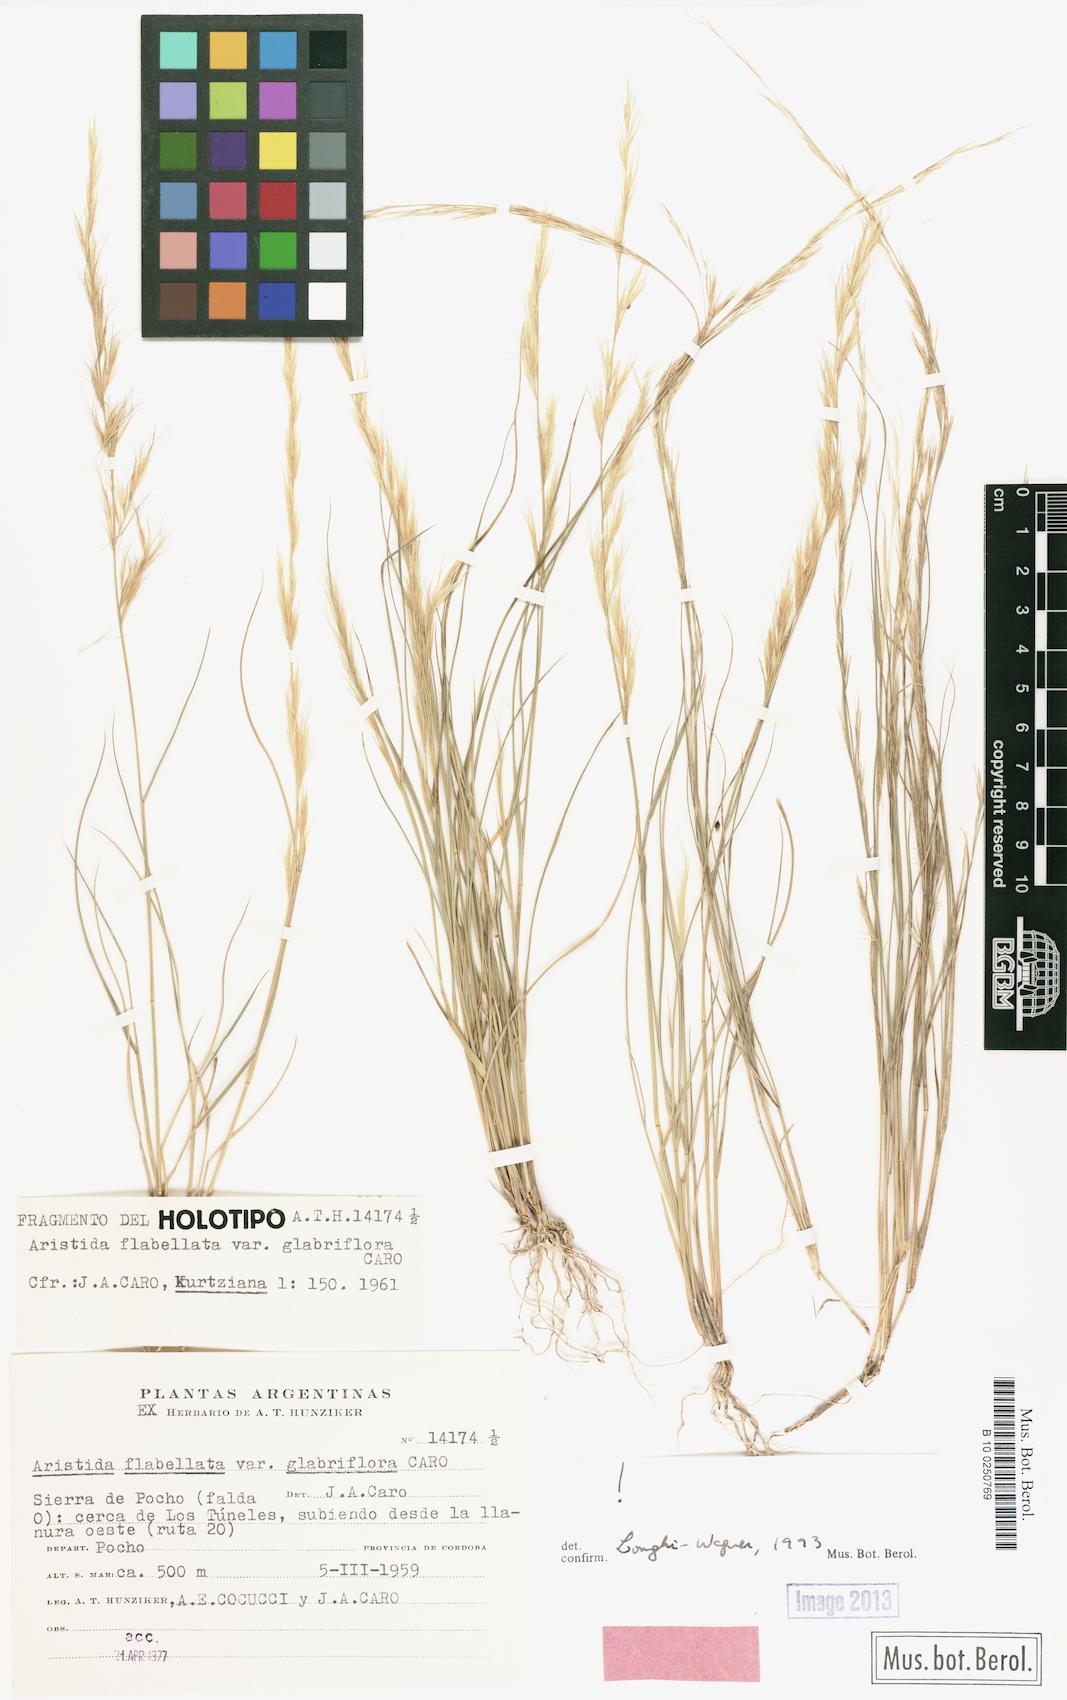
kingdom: Plantae
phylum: Tracheophyta
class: Liliopsida
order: Poales
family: Poaceae
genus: Aristida
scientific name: Aristida flabellata
